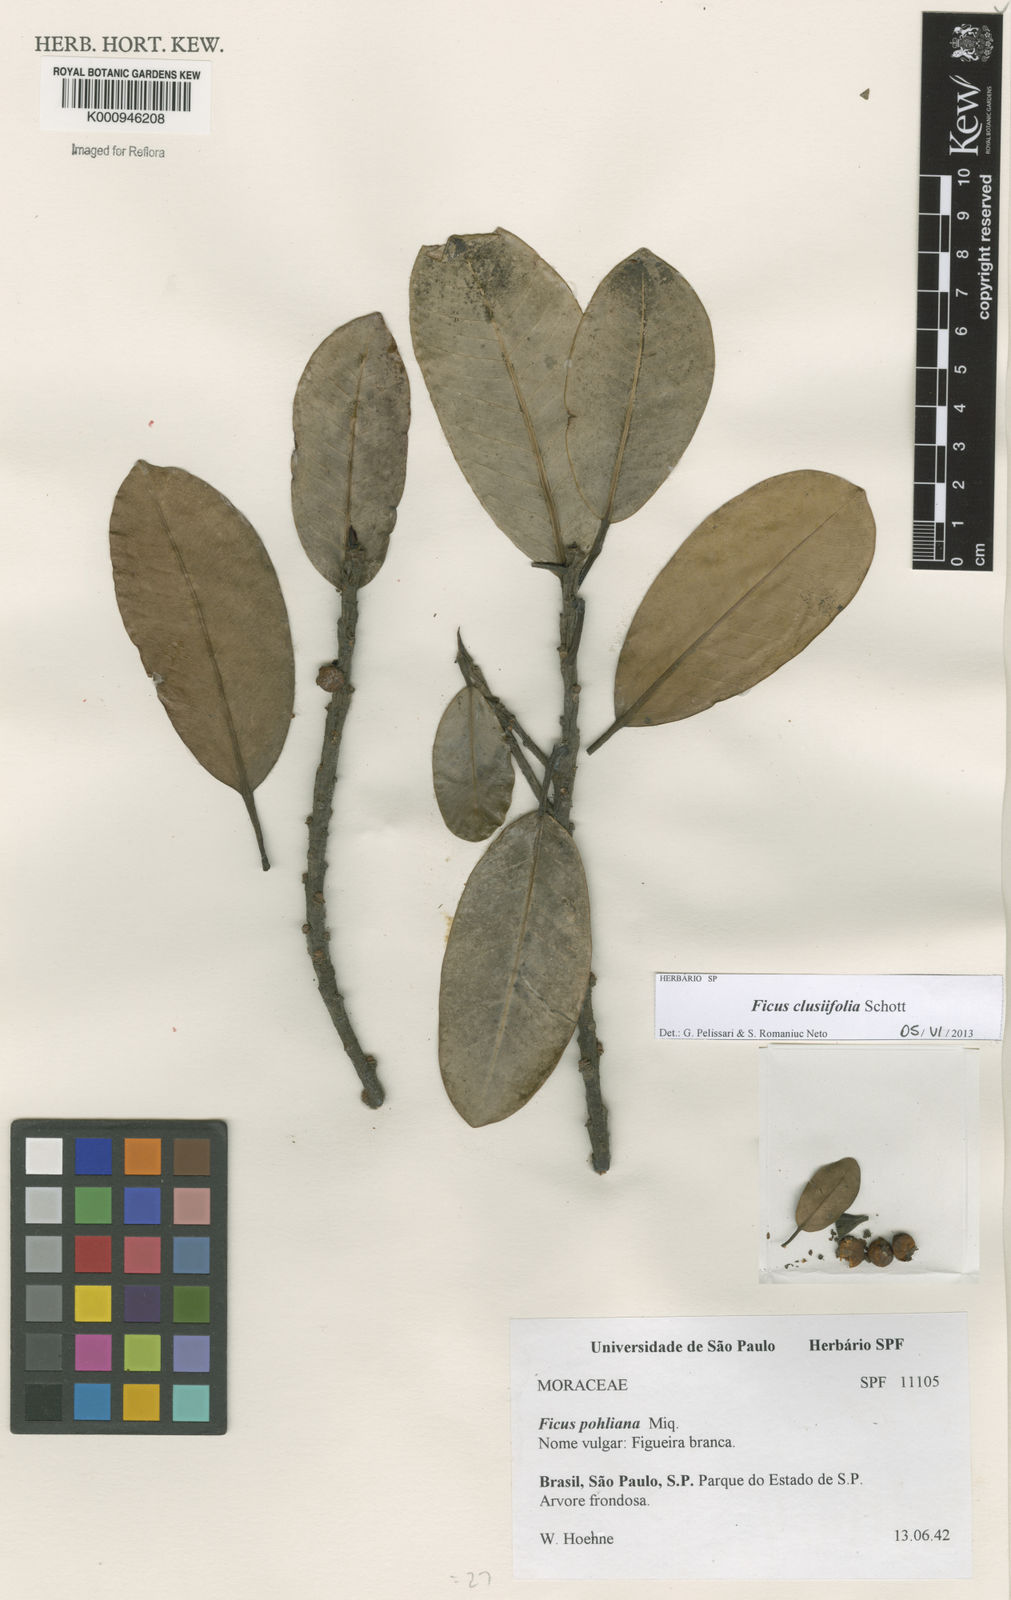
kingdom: Plantae
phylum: Tracheophyta
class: Magnoliopsida
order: Rosales
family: Moraceae
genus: Ficus
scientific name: Ficus
